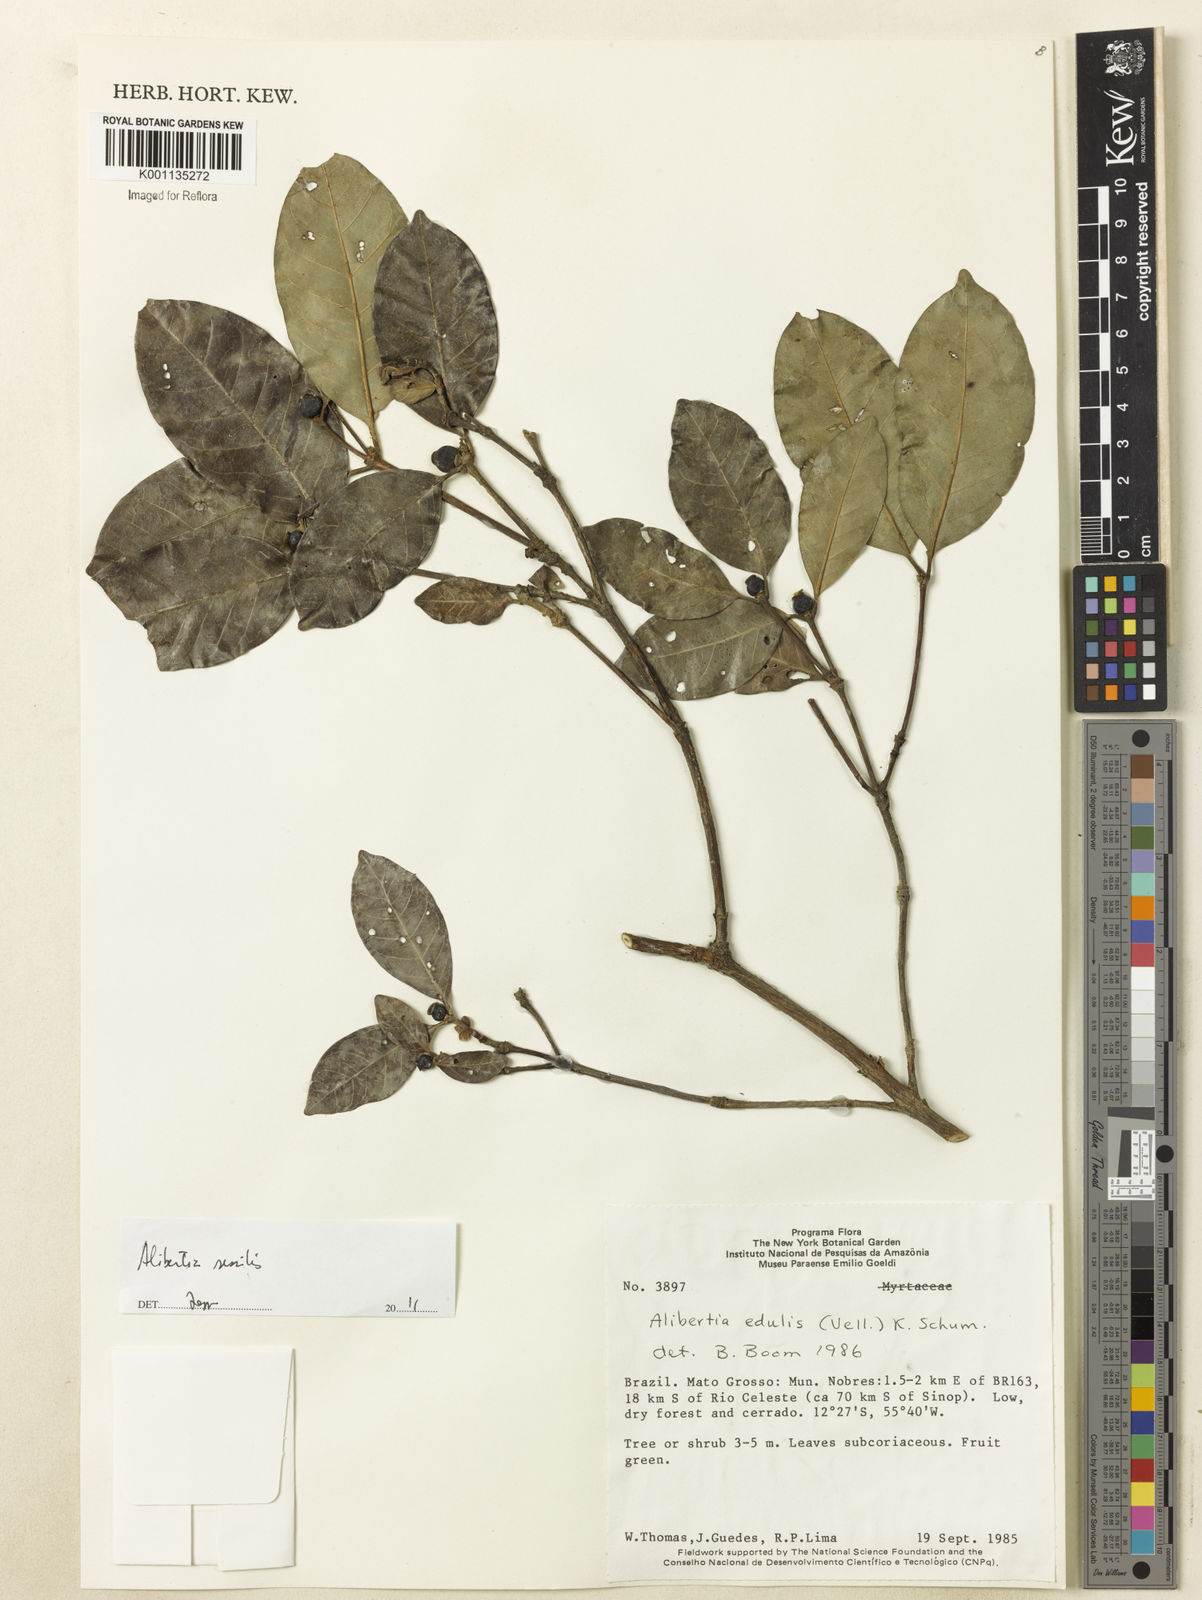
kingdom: Plantae
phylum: Tracheophyta
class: Magnoliopsida
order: Gentianales
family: Rubiaceae
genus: Alibertia
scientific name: Alibertia edulis
